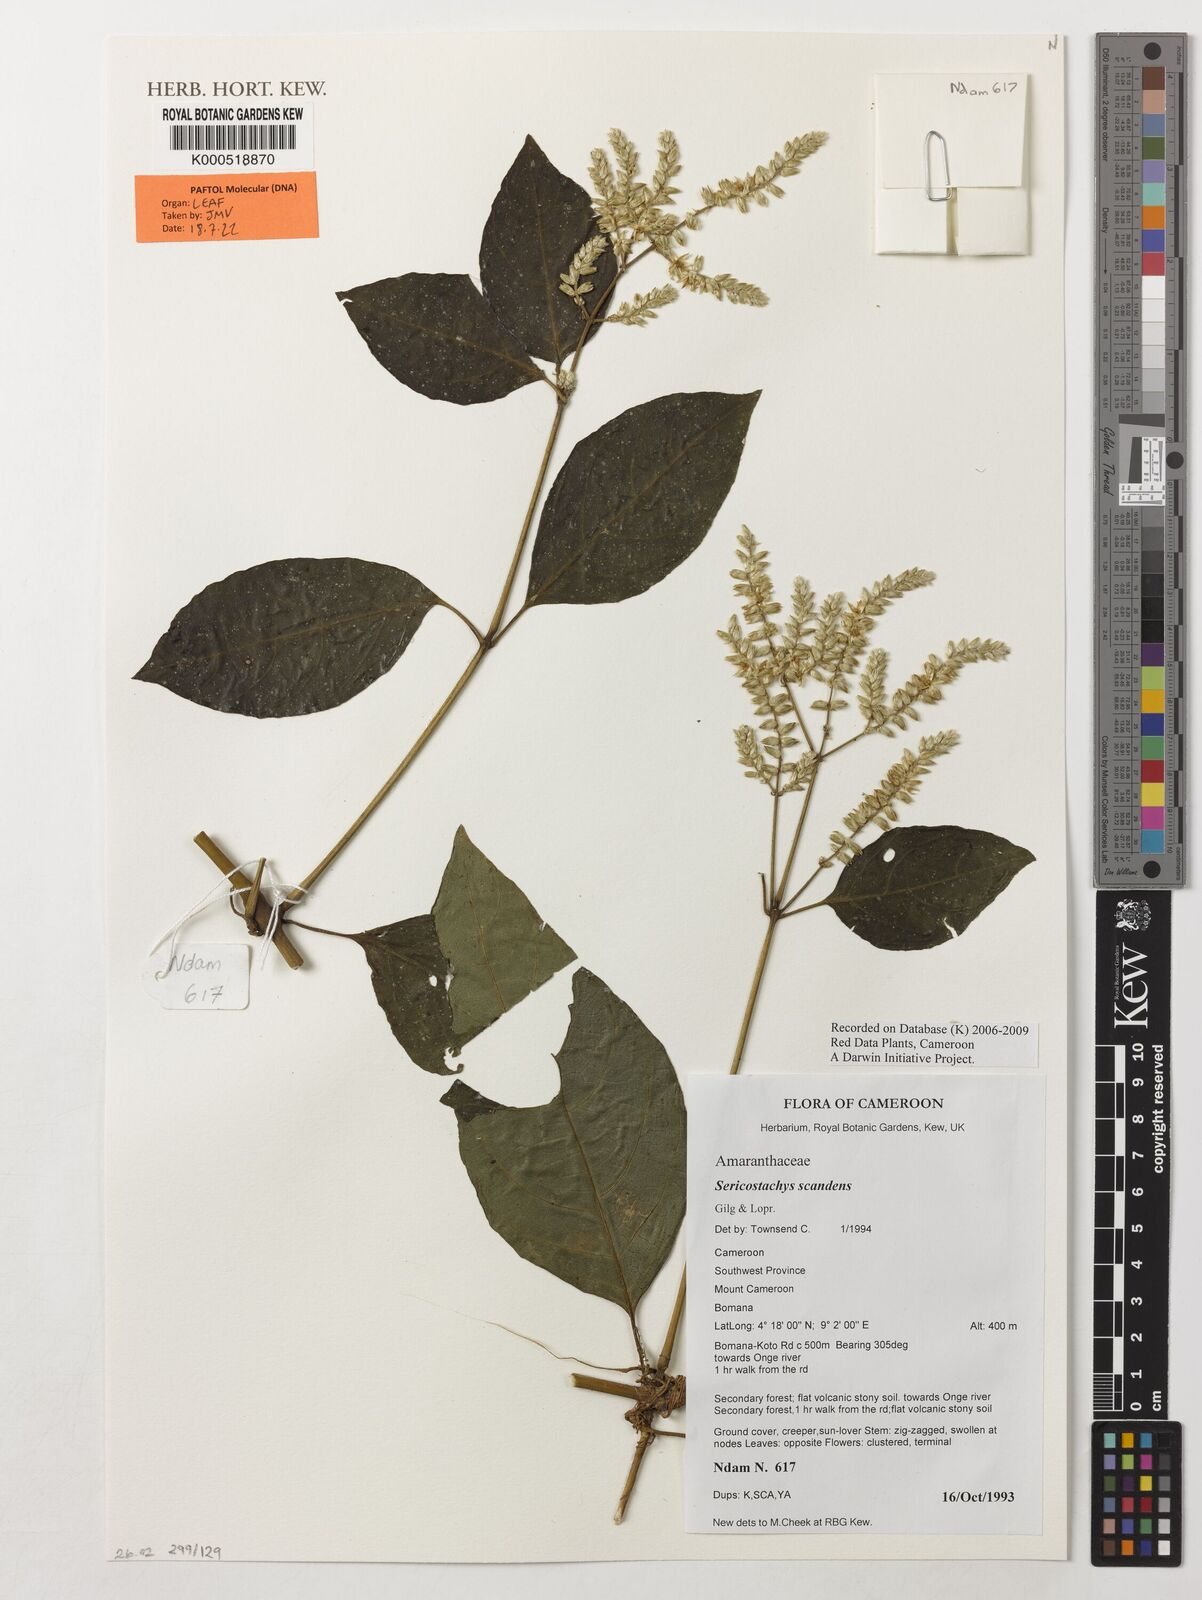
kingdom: Plantae
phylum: Tracheophyta
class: Magnoliopsida
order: Caryophyllales
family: Amaranthaceae
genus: Sericostachys
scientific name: Sericostachys scandens
